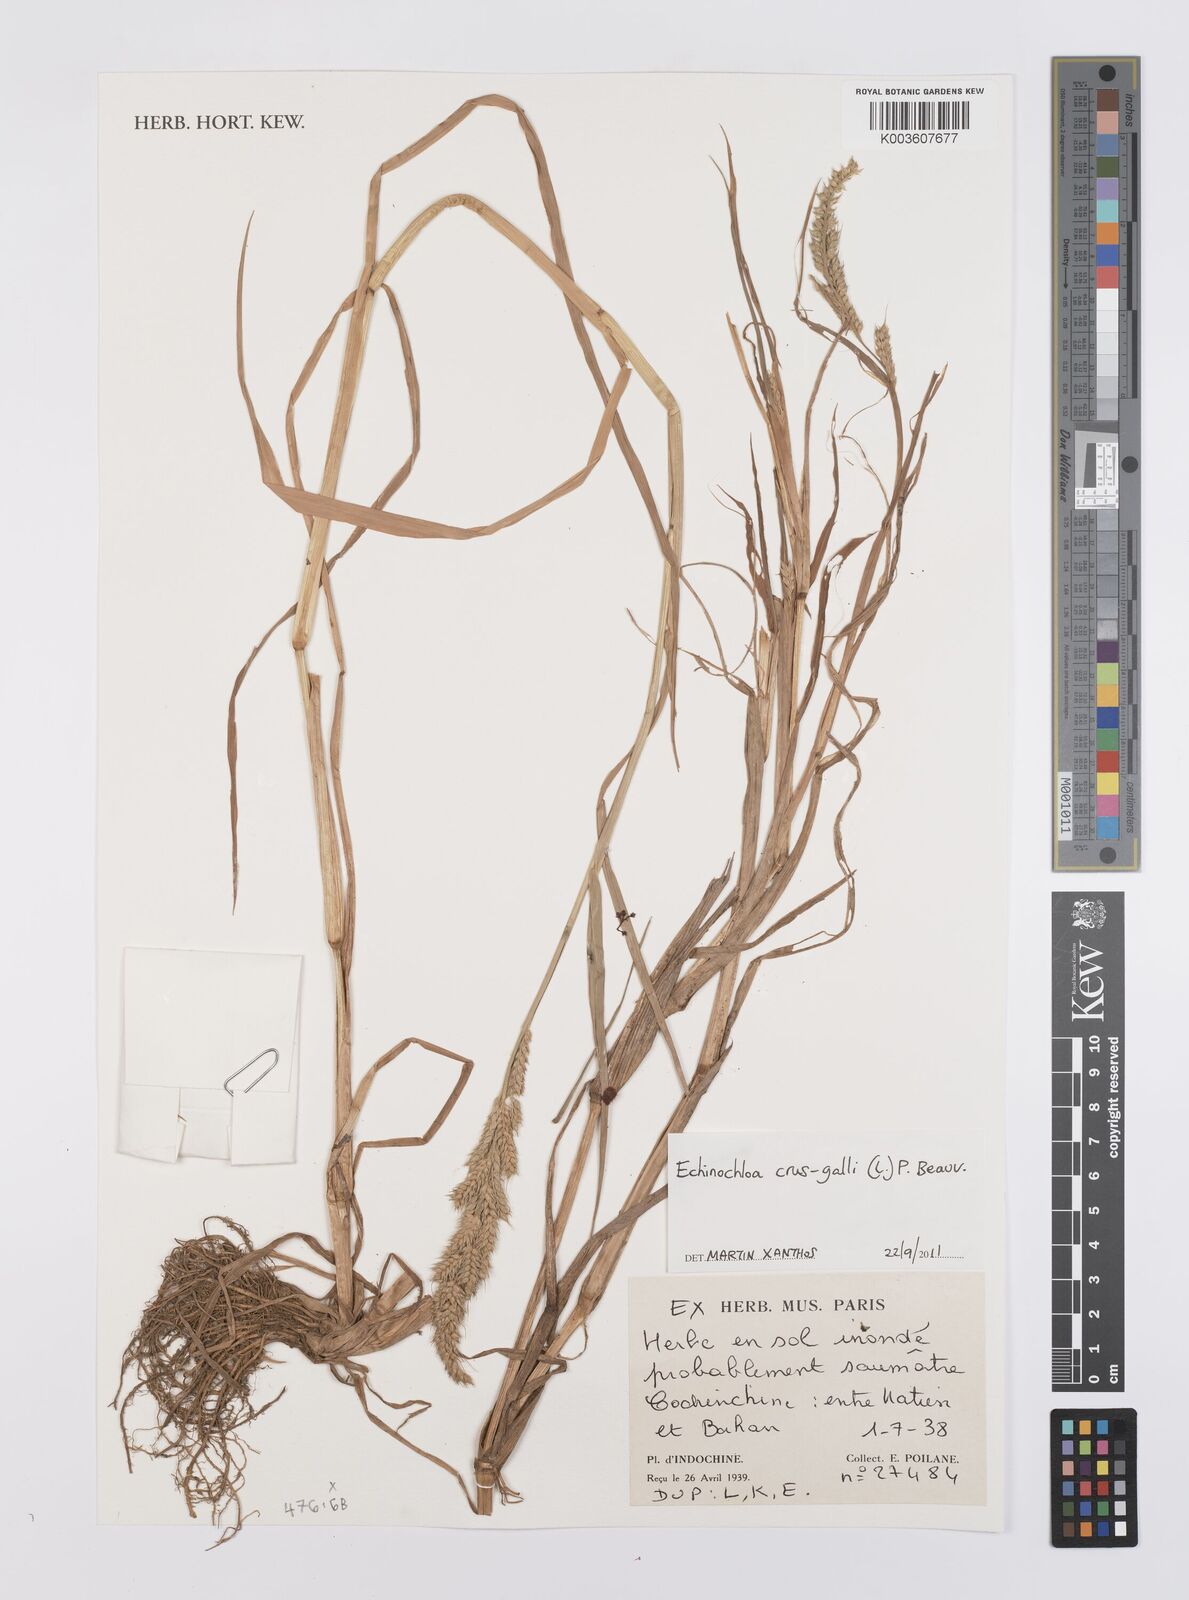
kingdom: Plantae
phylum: Tracheophyta
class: Liliopsida
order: Poales
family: Poaceae
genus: Echinochloa
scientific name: Echinochloa crus-galli
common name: Cockspur
